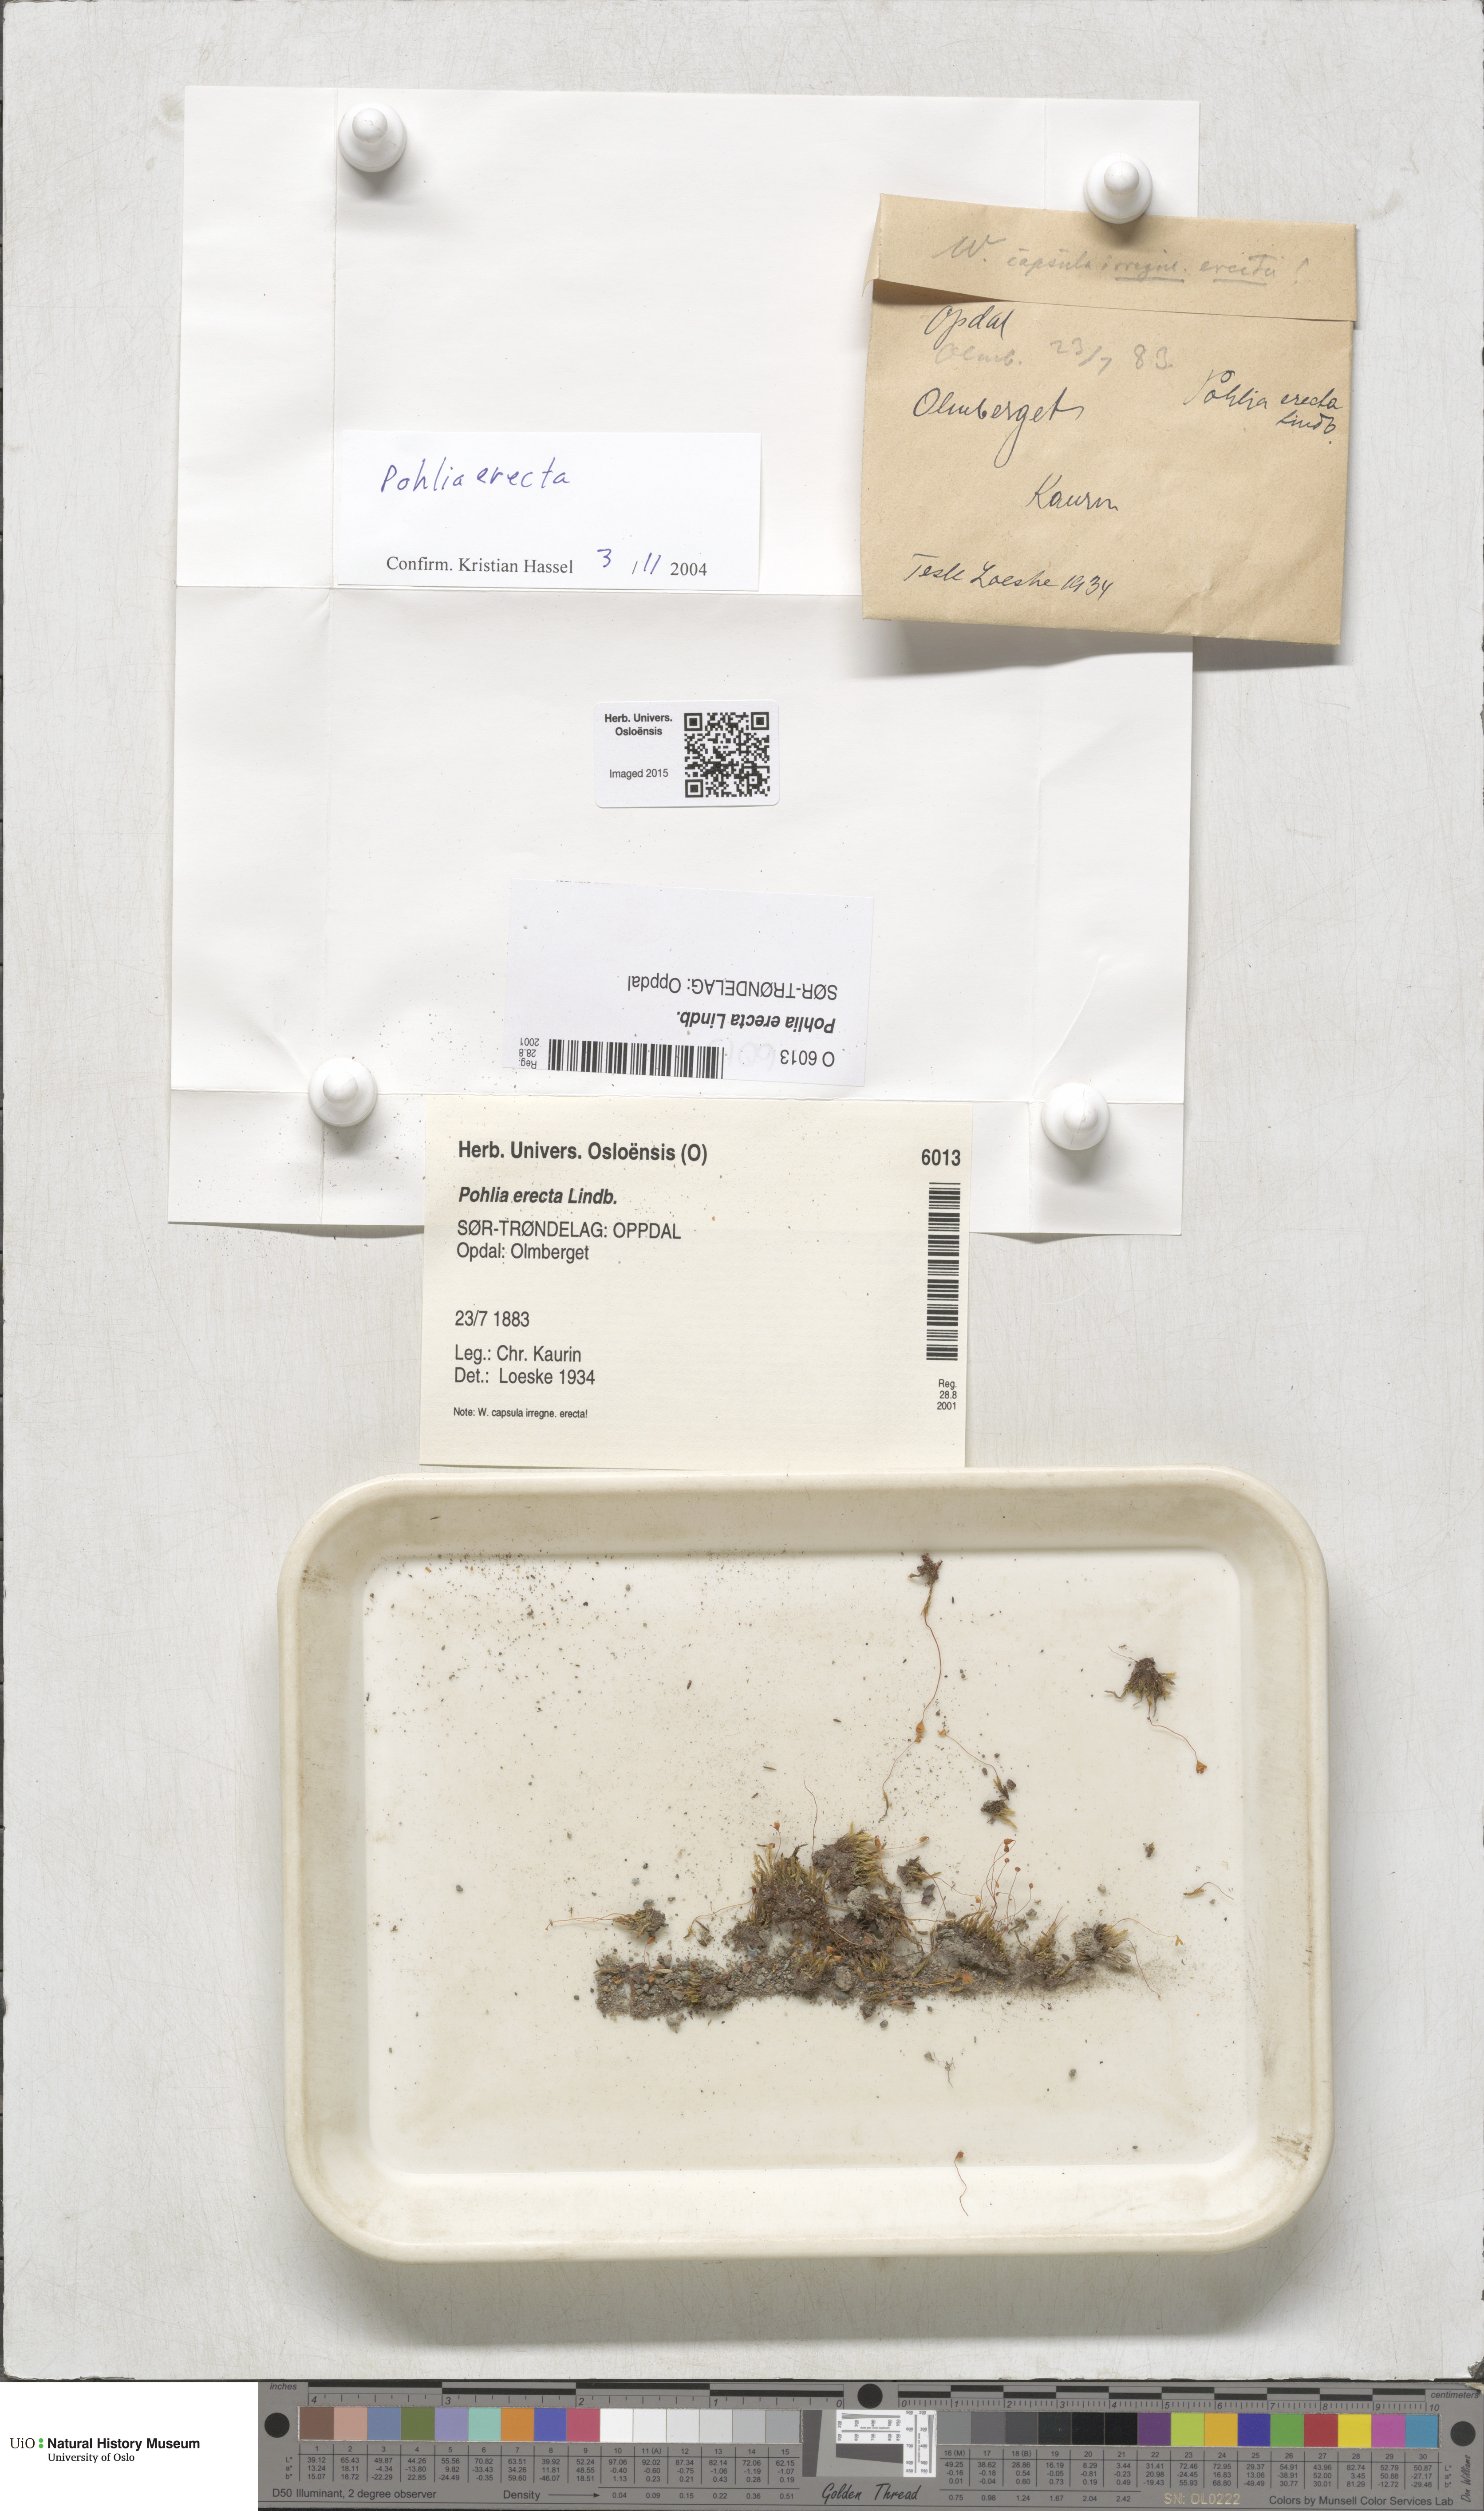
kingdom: Plantae
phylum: Bryophyta
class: Bryopsida
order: Bryales
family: Mniaceae
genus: Pohlia
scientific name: Pohlia erecta
